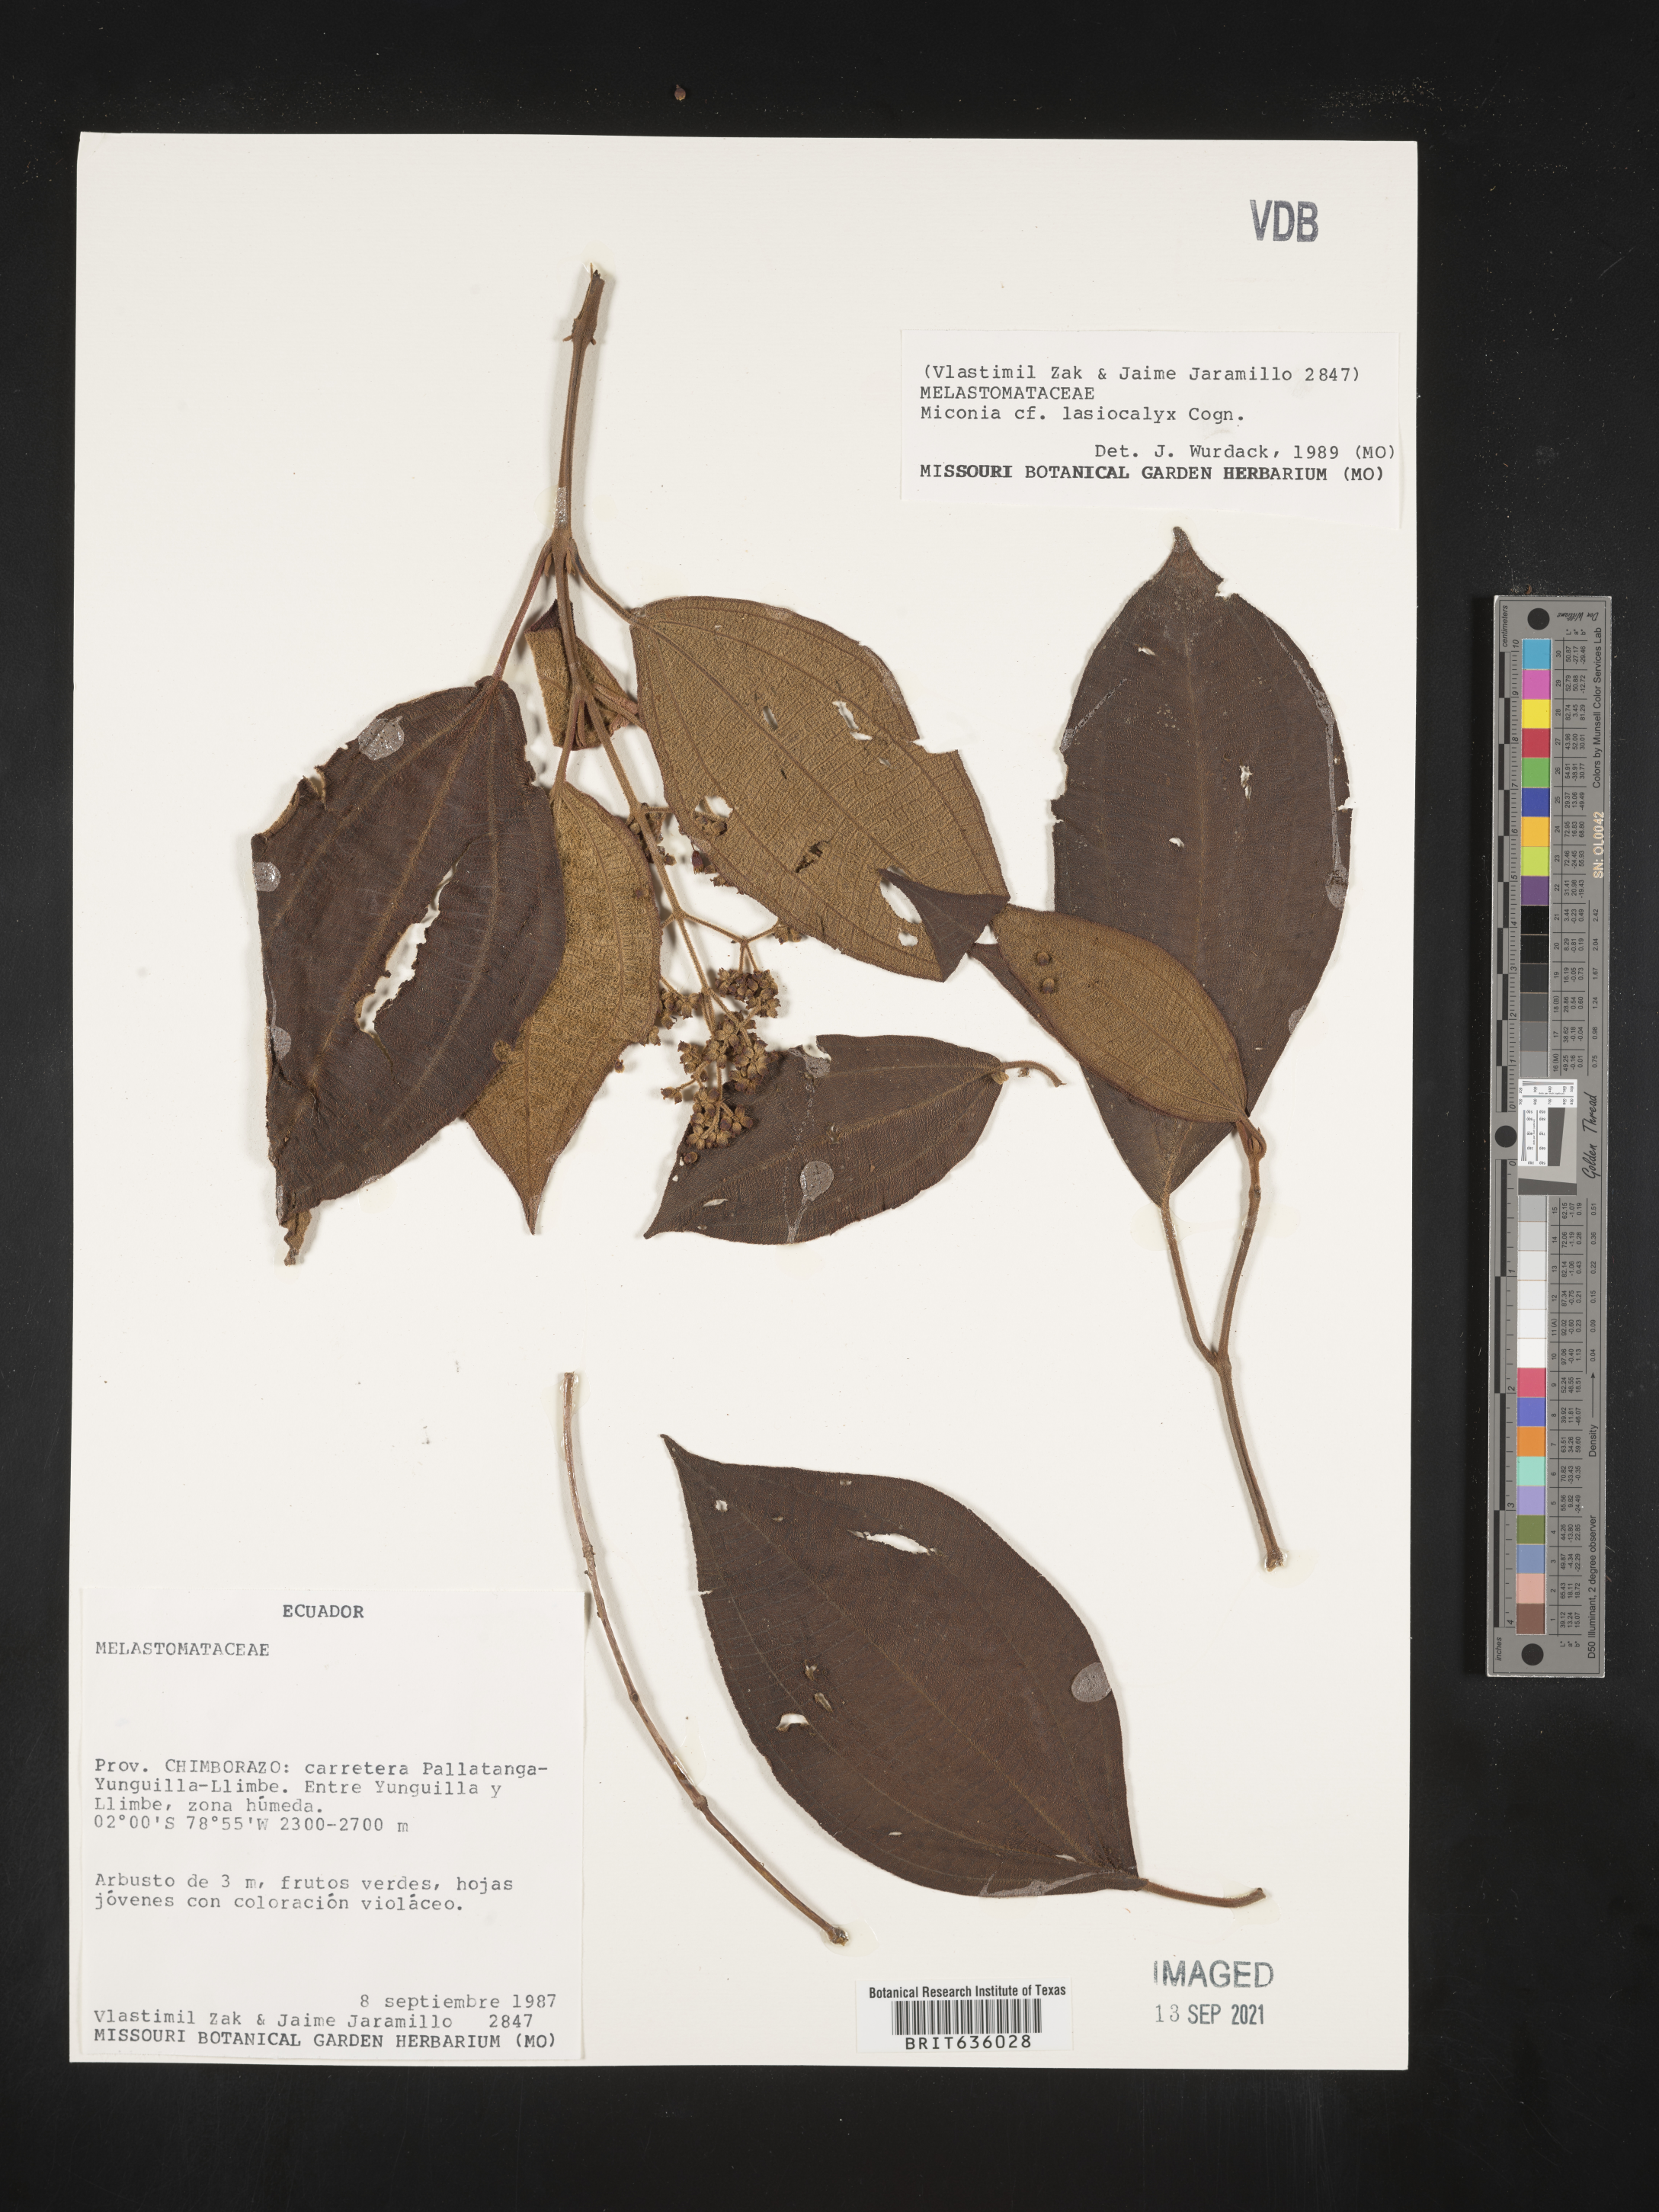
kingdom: Plantae
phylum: Tracheophyta
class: Magnoliopsida
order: Myrtales
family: Melastomataceae
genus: Miconia
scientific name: Miconia
